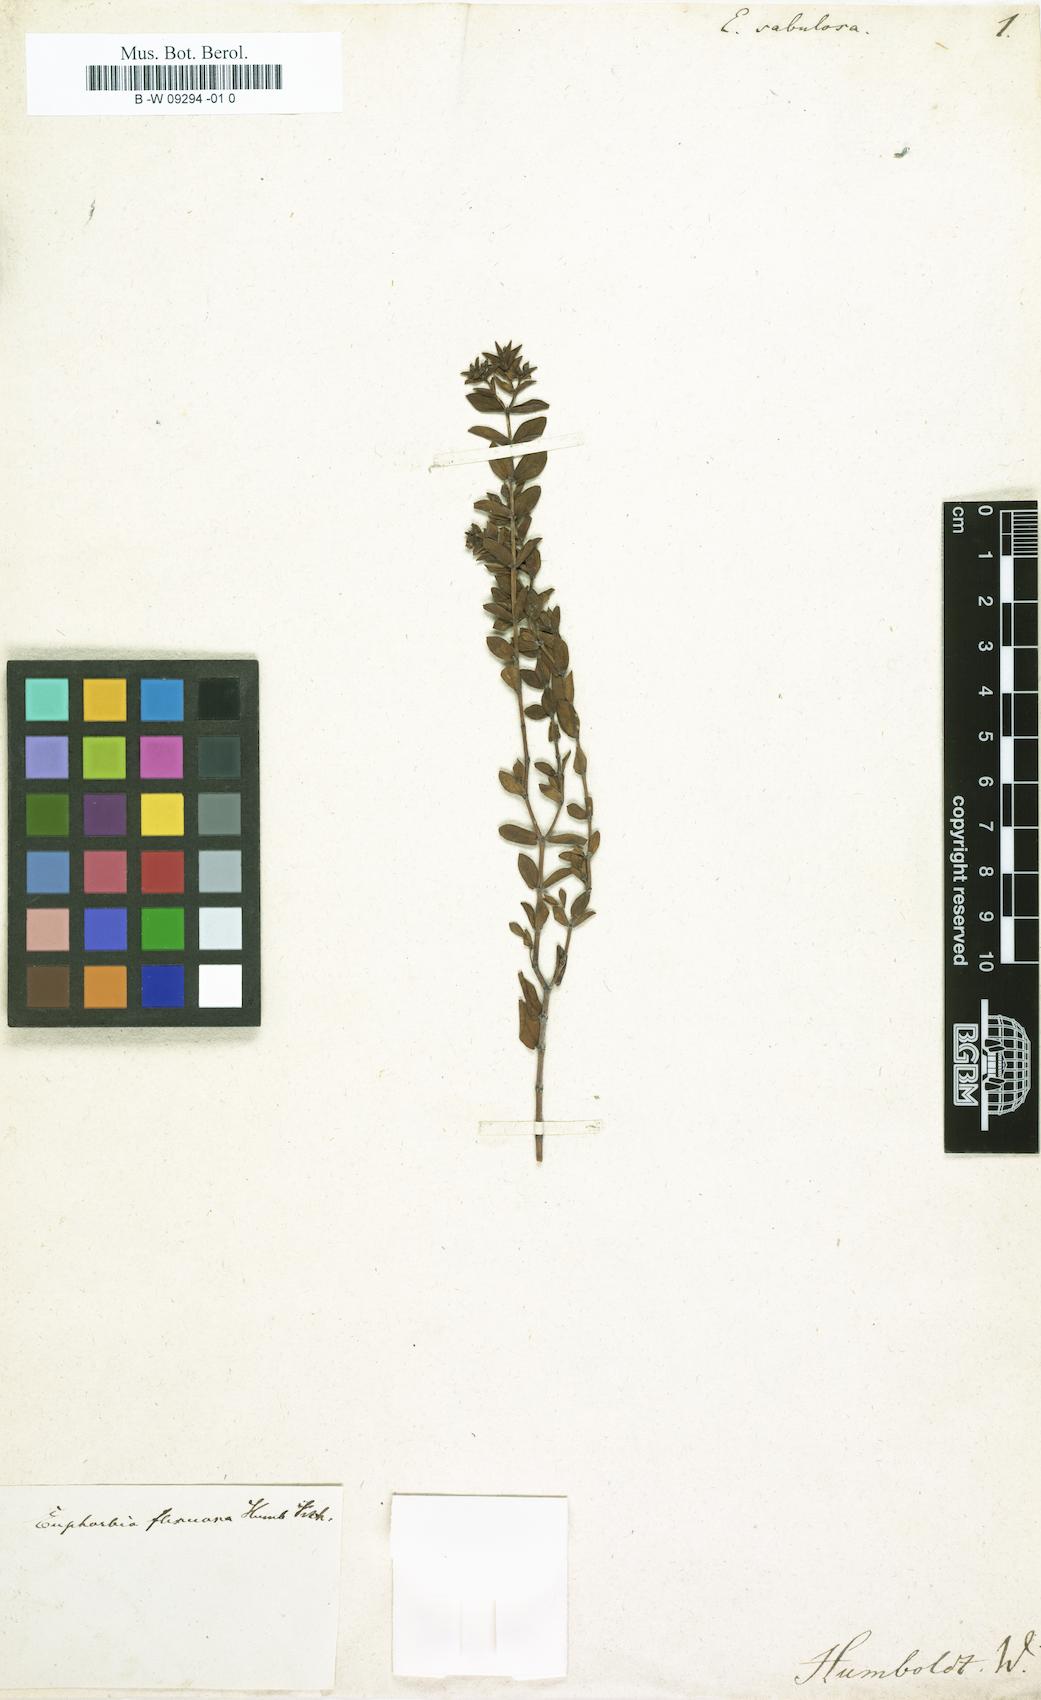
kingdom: Plantae
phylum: Tracheophyta
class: Magnoliopsida
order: Malpighiales
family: Euphorbiaceae
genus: Euphorbia
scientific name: Euphorbia
